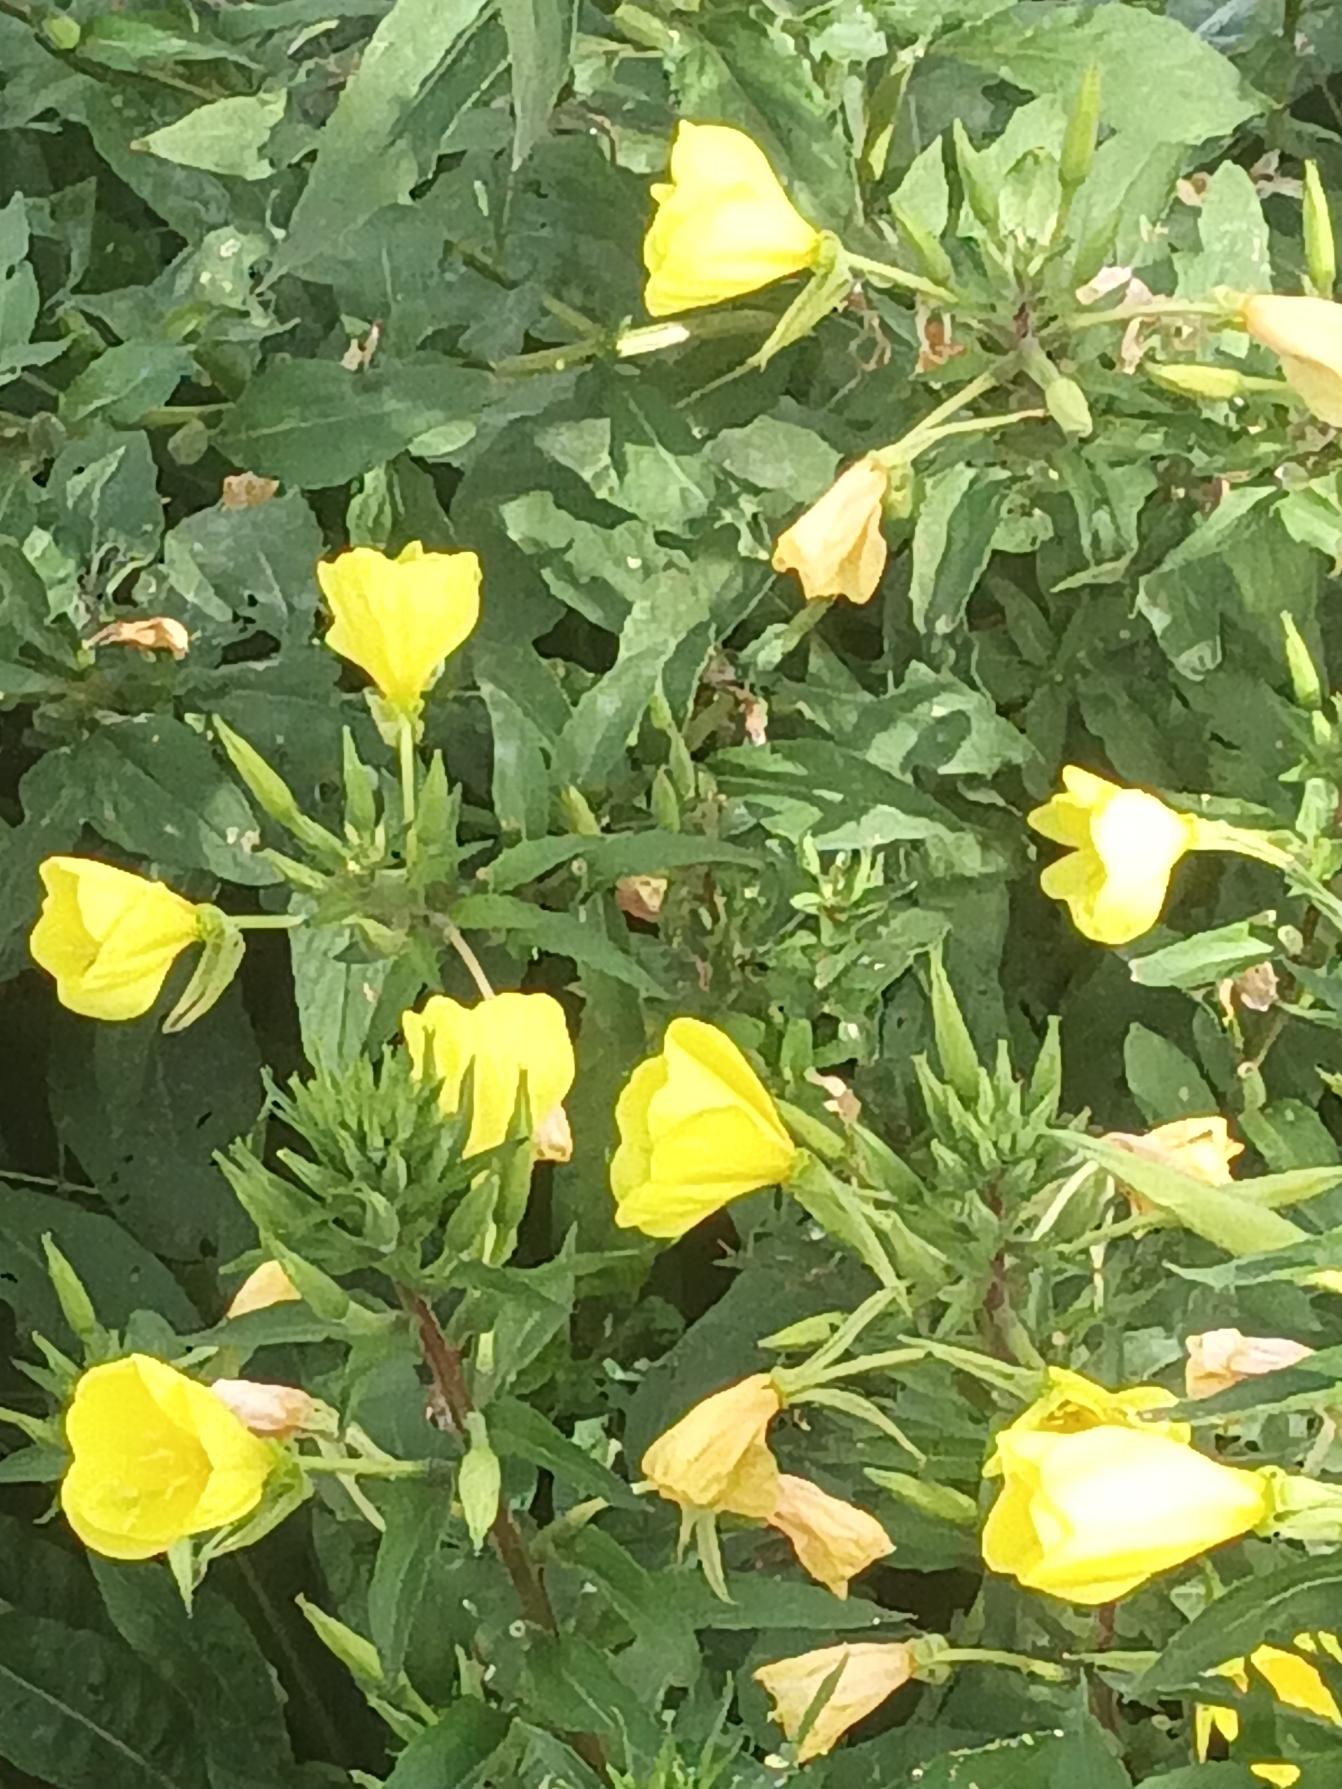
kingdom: Plantae
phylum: Tracheophyta
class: Magnoliopsida
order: Myrtales
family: Onagraceae
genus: Oenothera
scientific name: Oenothera rubricauloides
